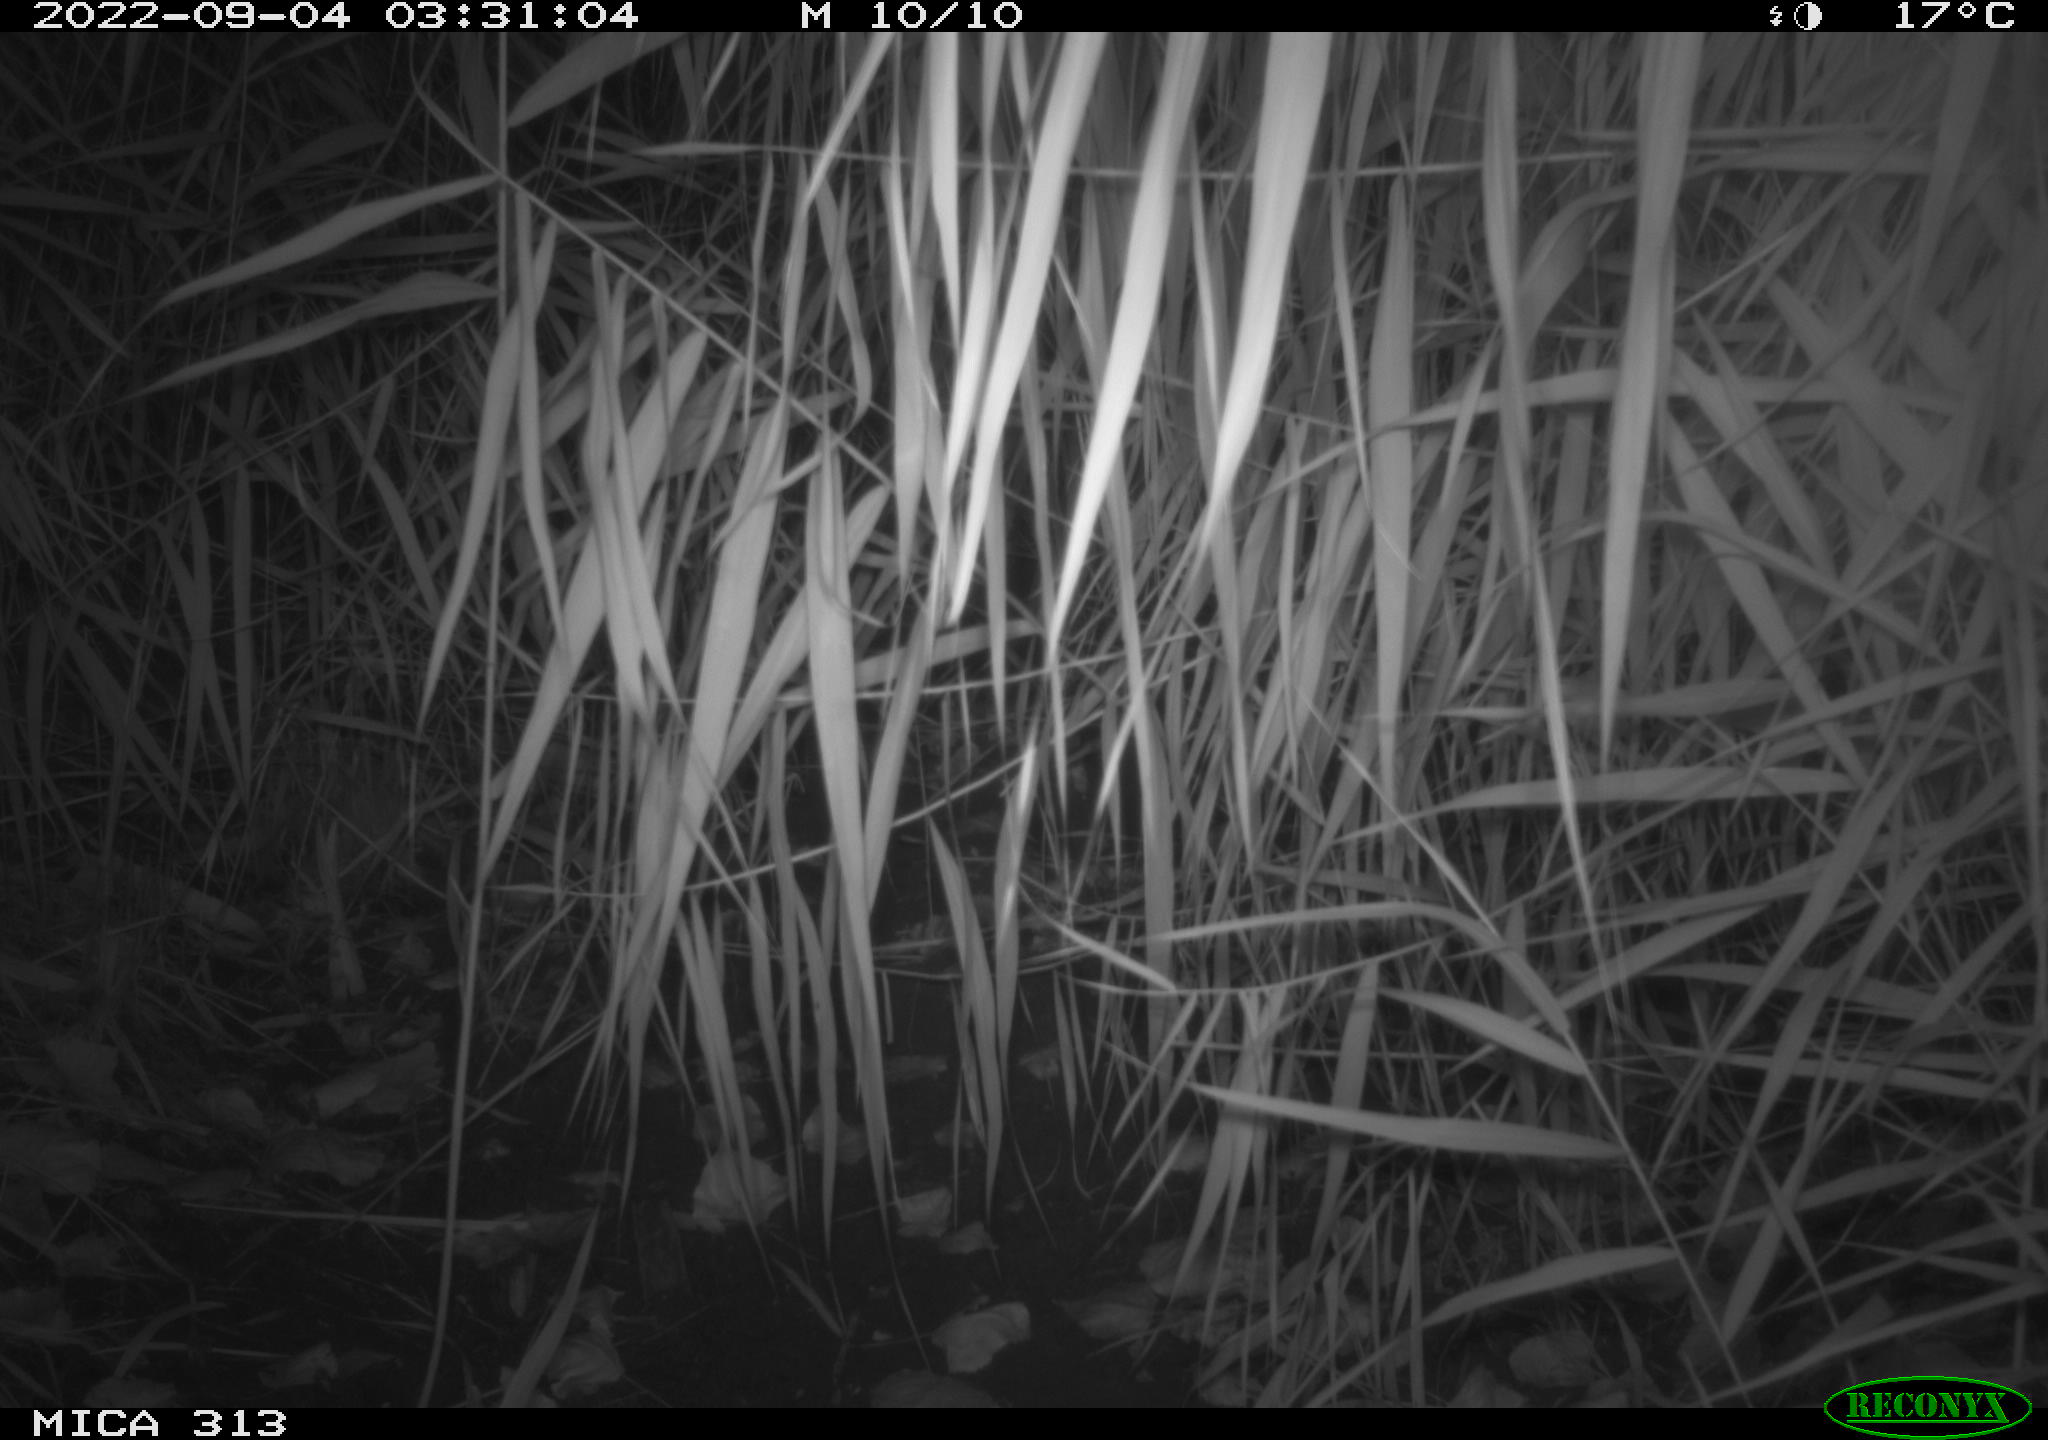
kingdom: Animalia
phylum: Chordata
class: Mammalia
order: Rodentia
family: Muridae
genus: Rattus
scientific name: Rattus norvegicus
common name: Brown rat
